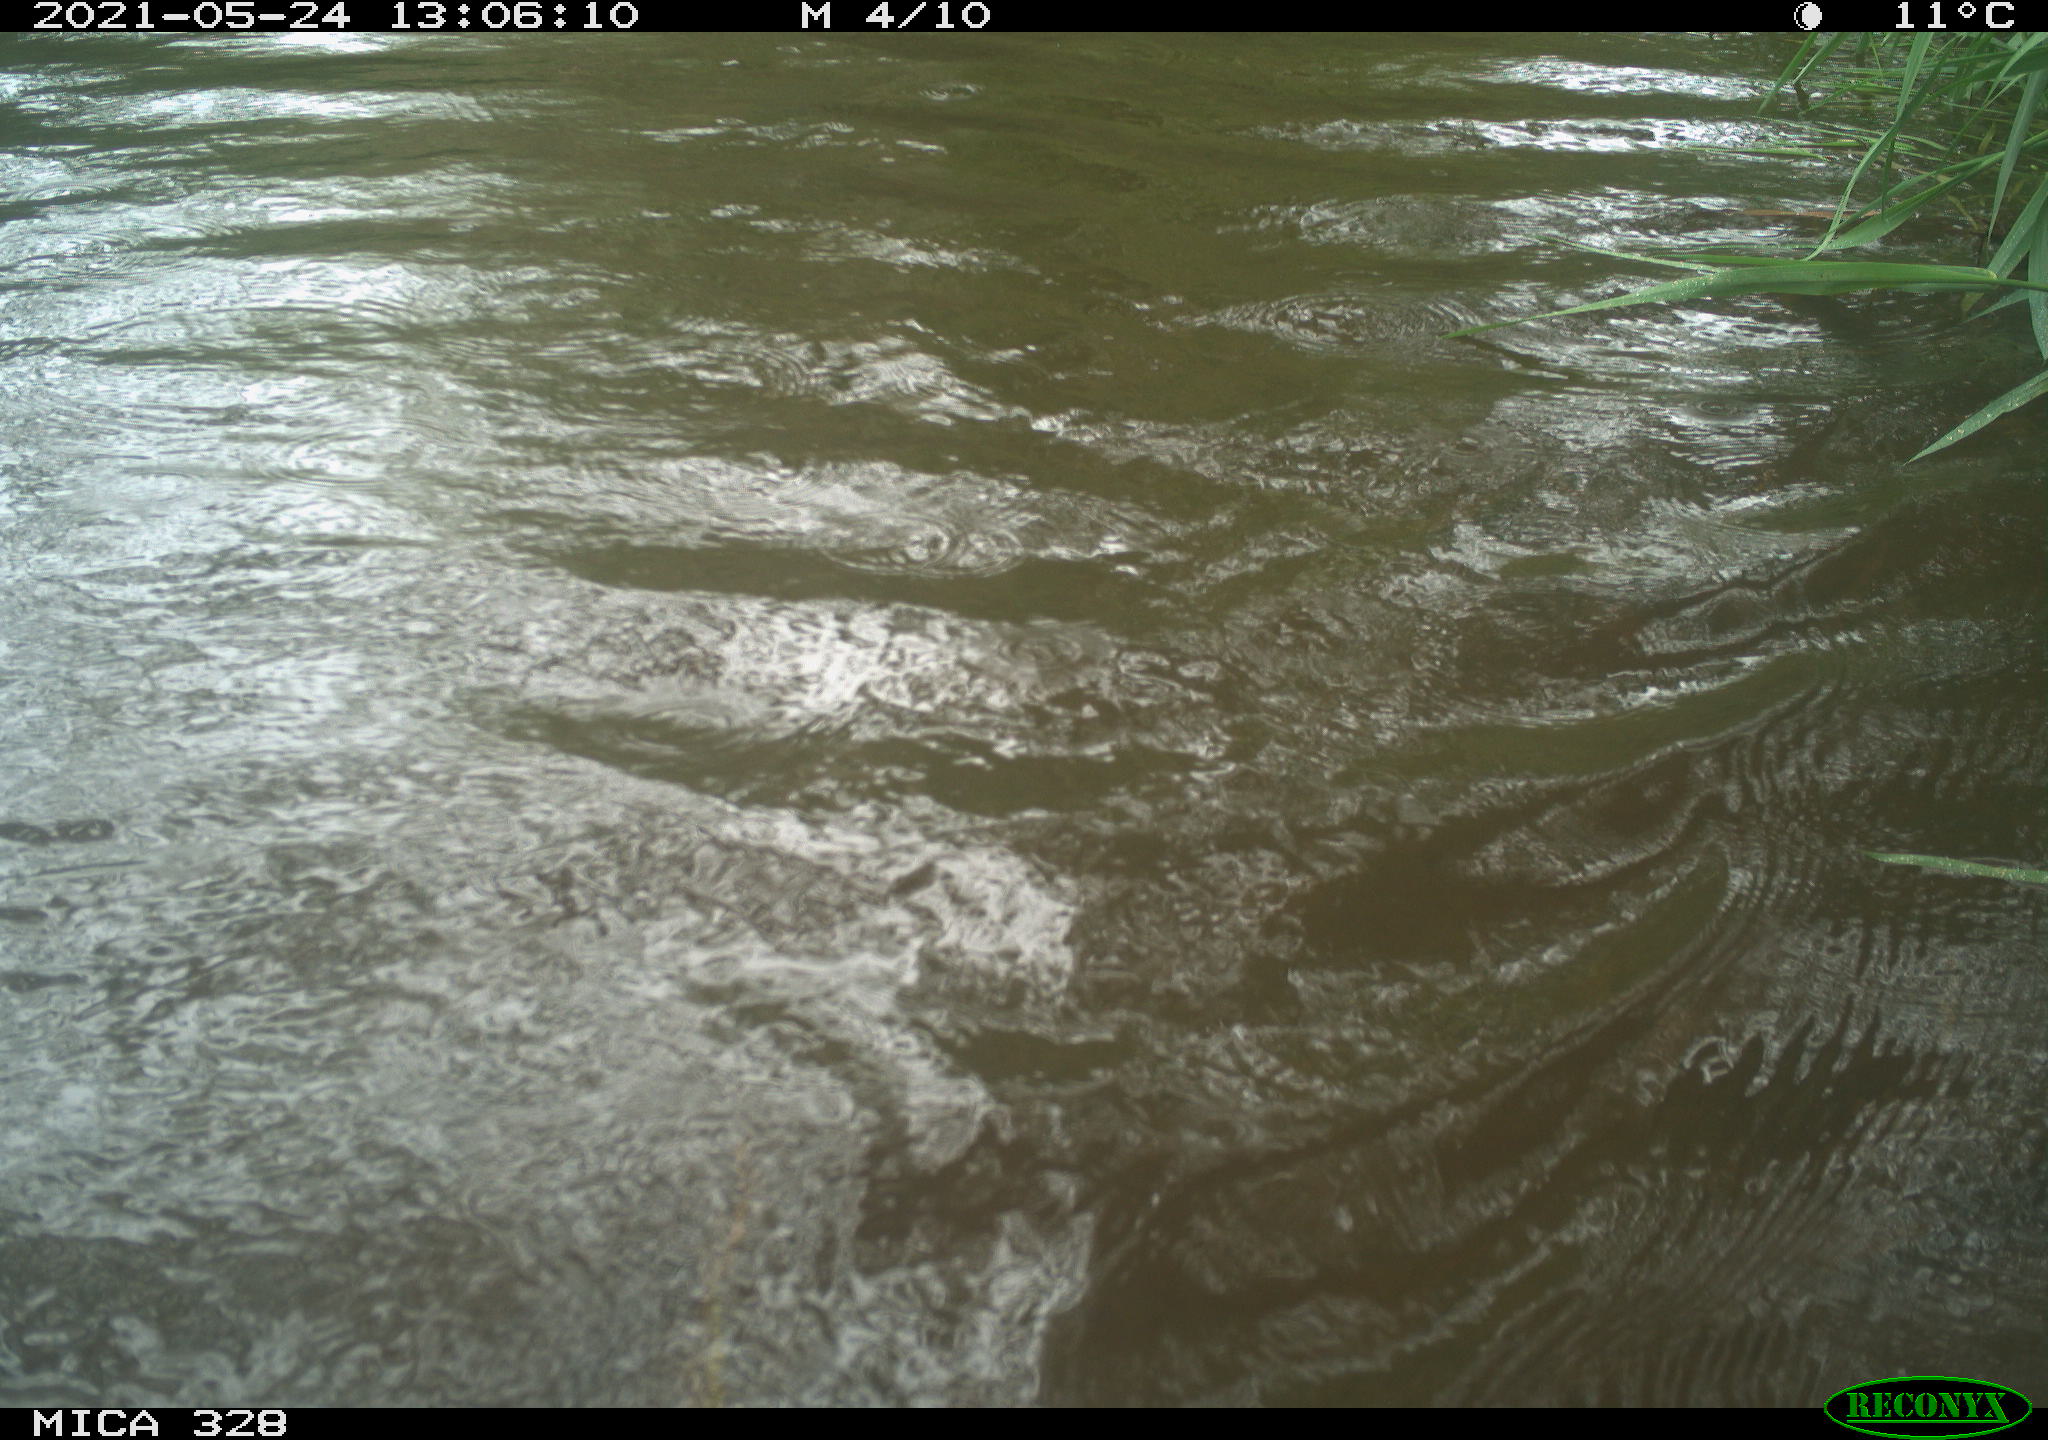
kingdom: Animalia
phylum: Chordata
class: Aves
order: Anseriformes
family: Anatidae
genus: Aix
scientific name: Aix galericulata
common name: Mandarin duck
